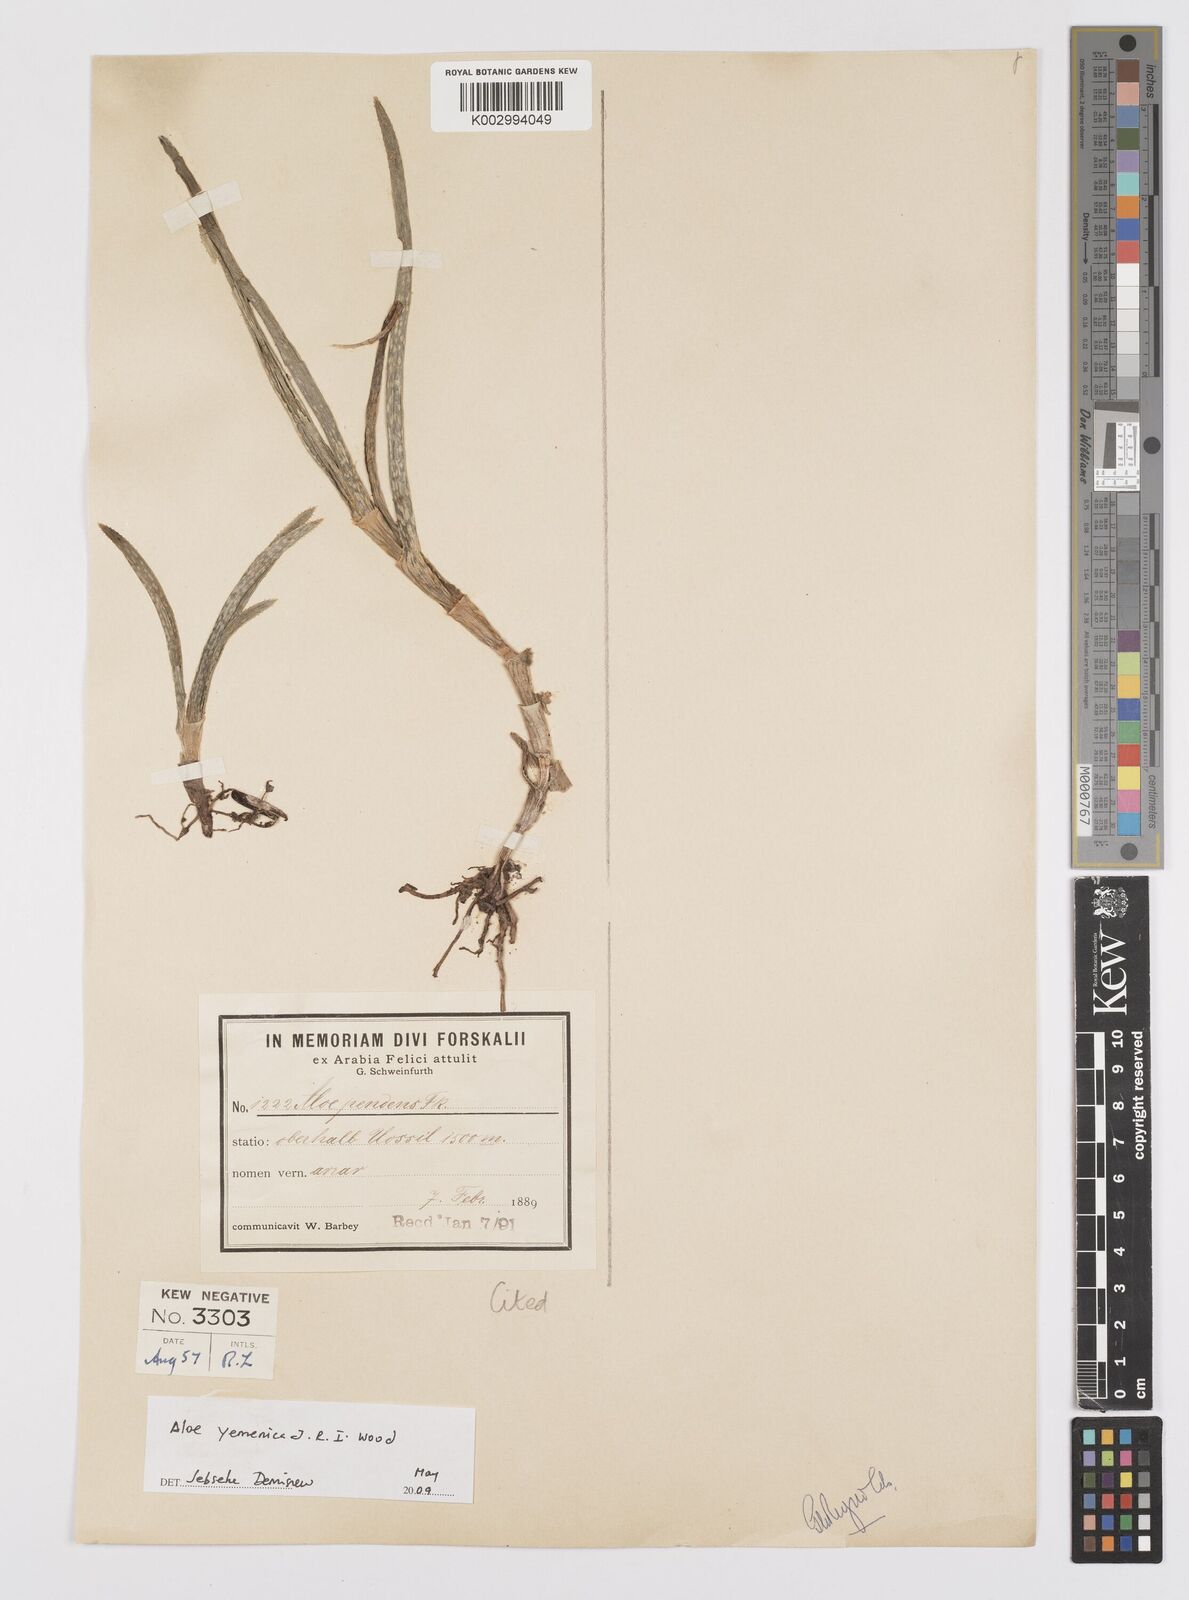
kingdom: Plantae
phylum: Tracheophyta
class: Liliopsida
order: Asparagales
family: Asphodelaceae
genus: Aloe
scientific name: Aloe yemenica
